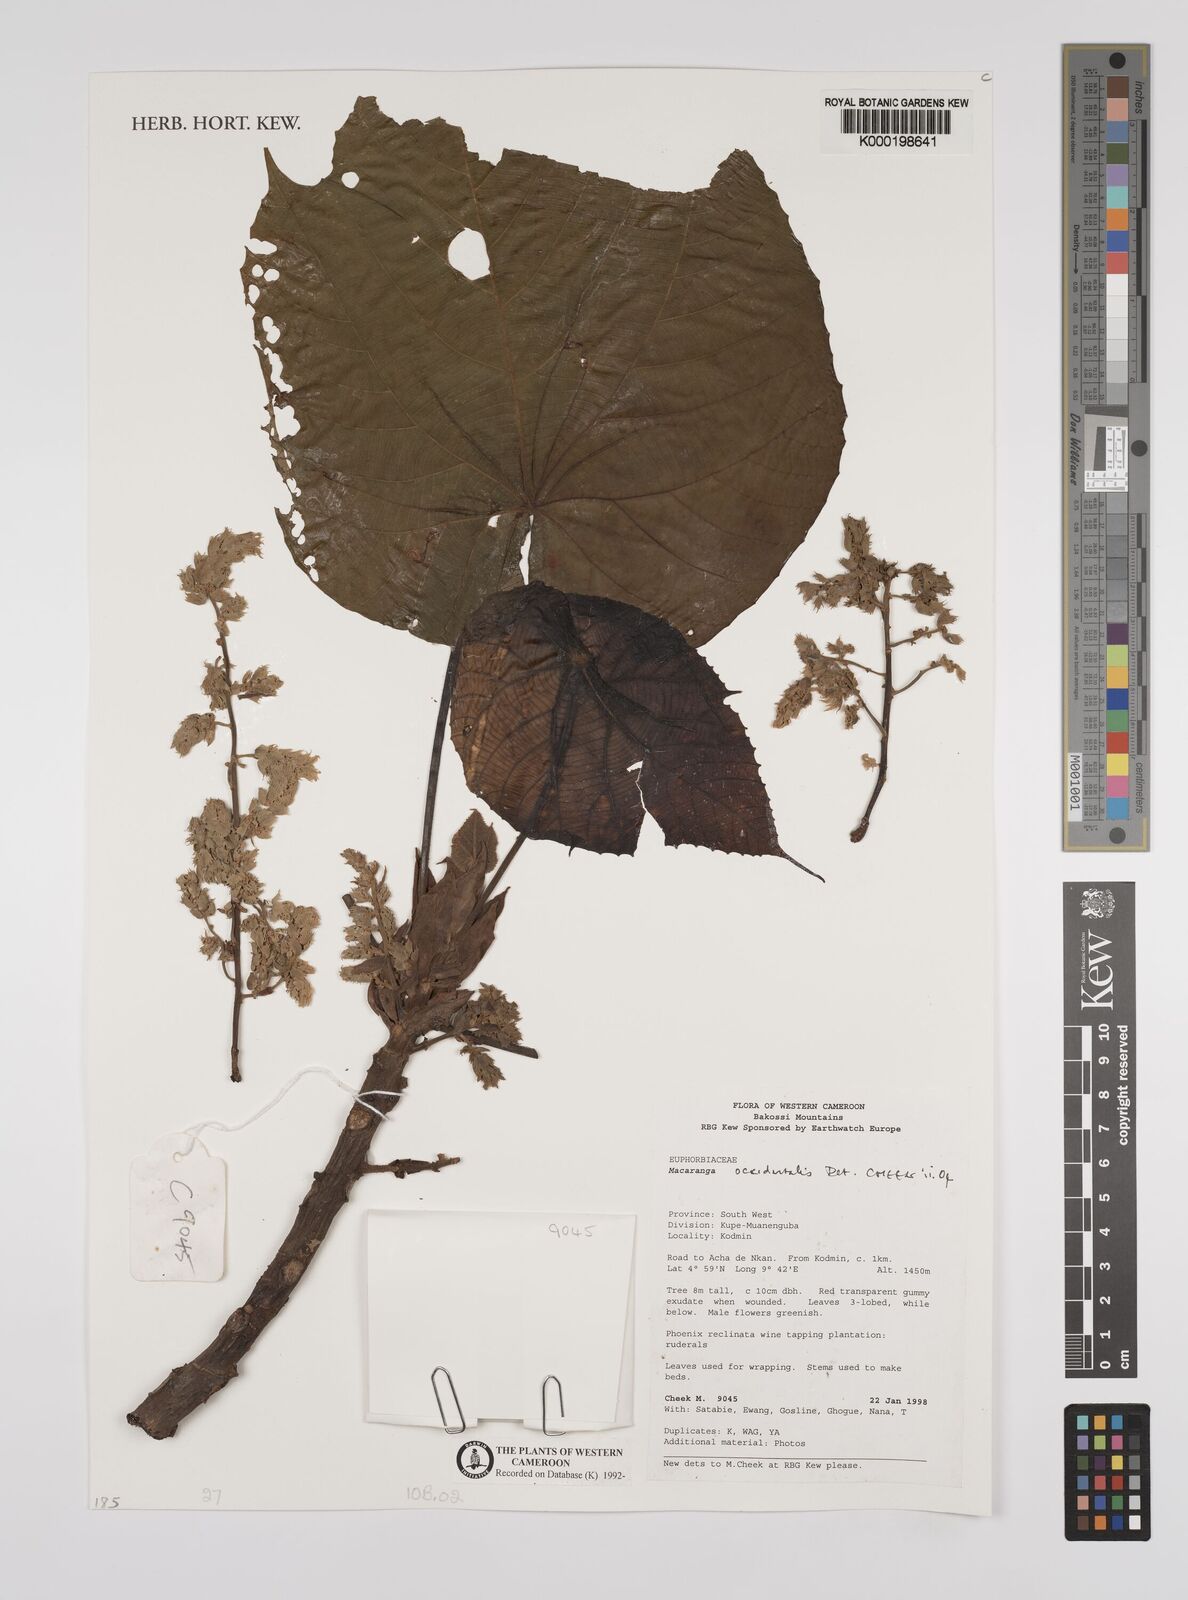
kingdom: Plantae
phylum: Tracheophyta
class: Magnoliopsida
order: Malpighiales
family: Euphorbiaceae
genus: Macaranga
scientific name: Macaranga
